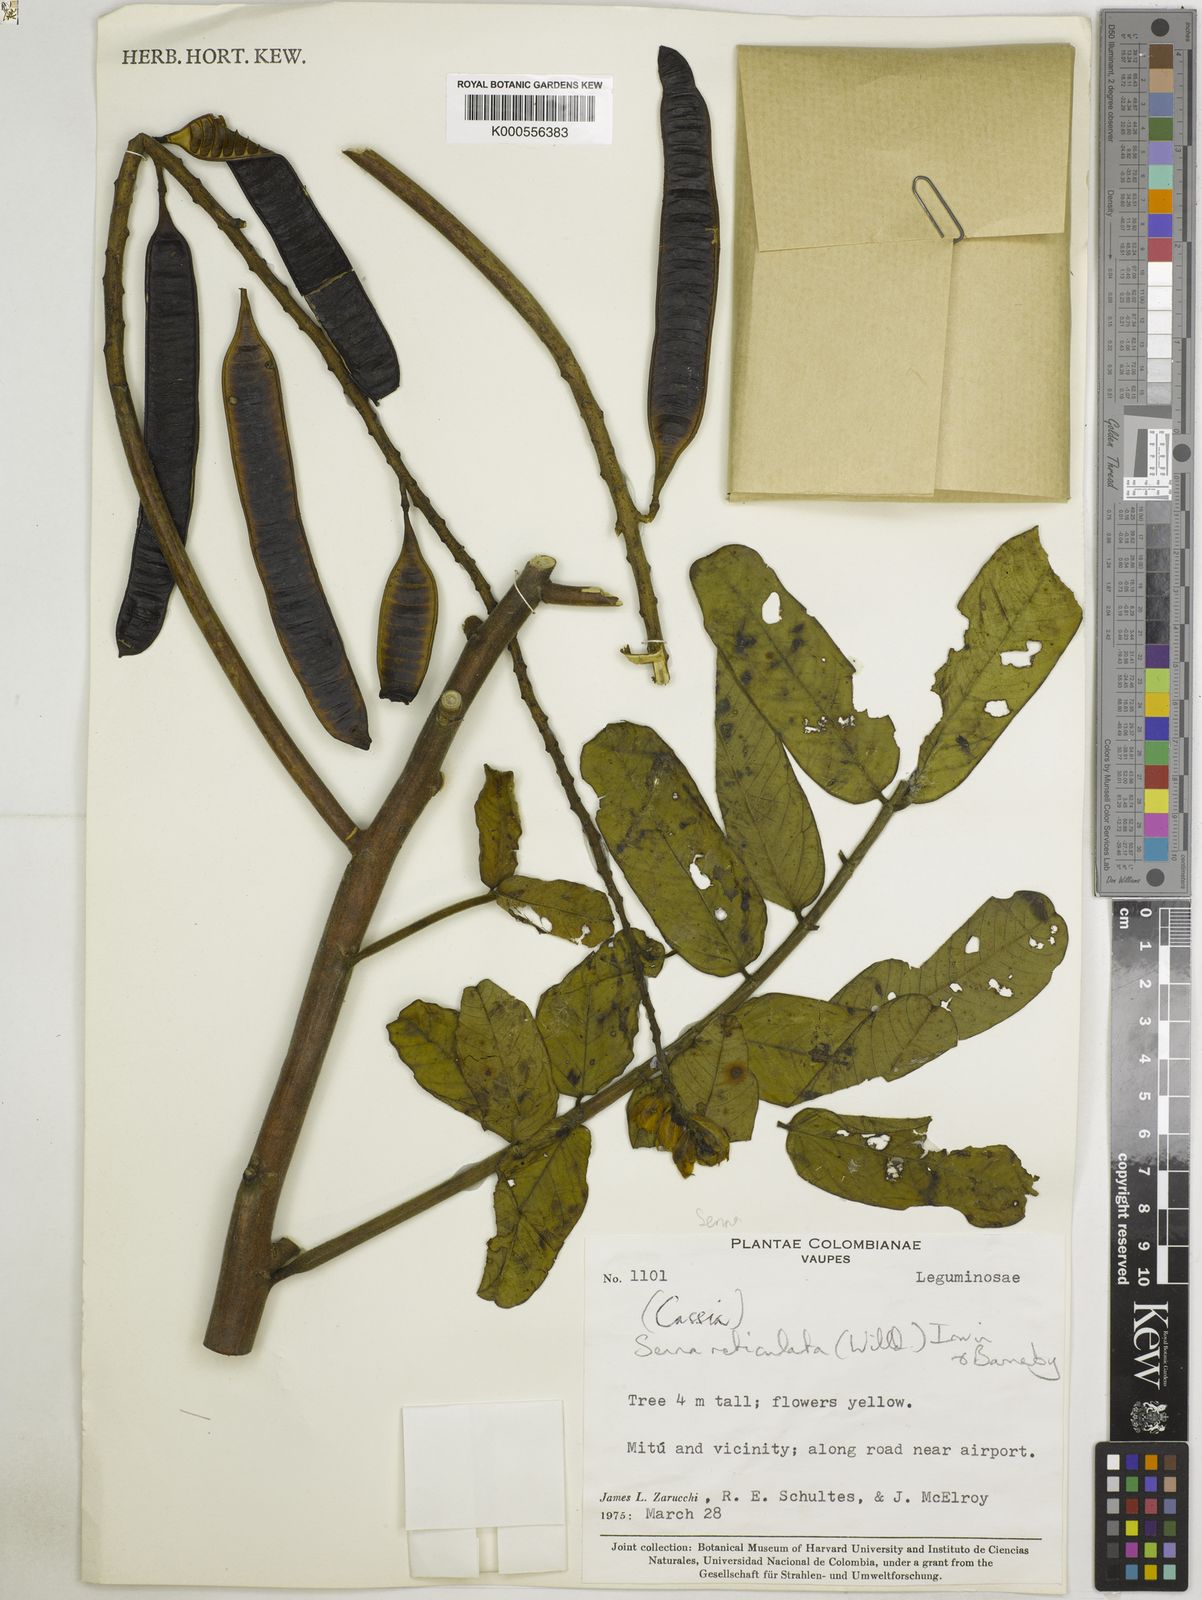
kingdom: Plantae
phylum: Tracheophyta
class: Magnoliopsida
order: Fabales
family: Fabaceae
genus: Senna
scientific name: Senna reticulata
